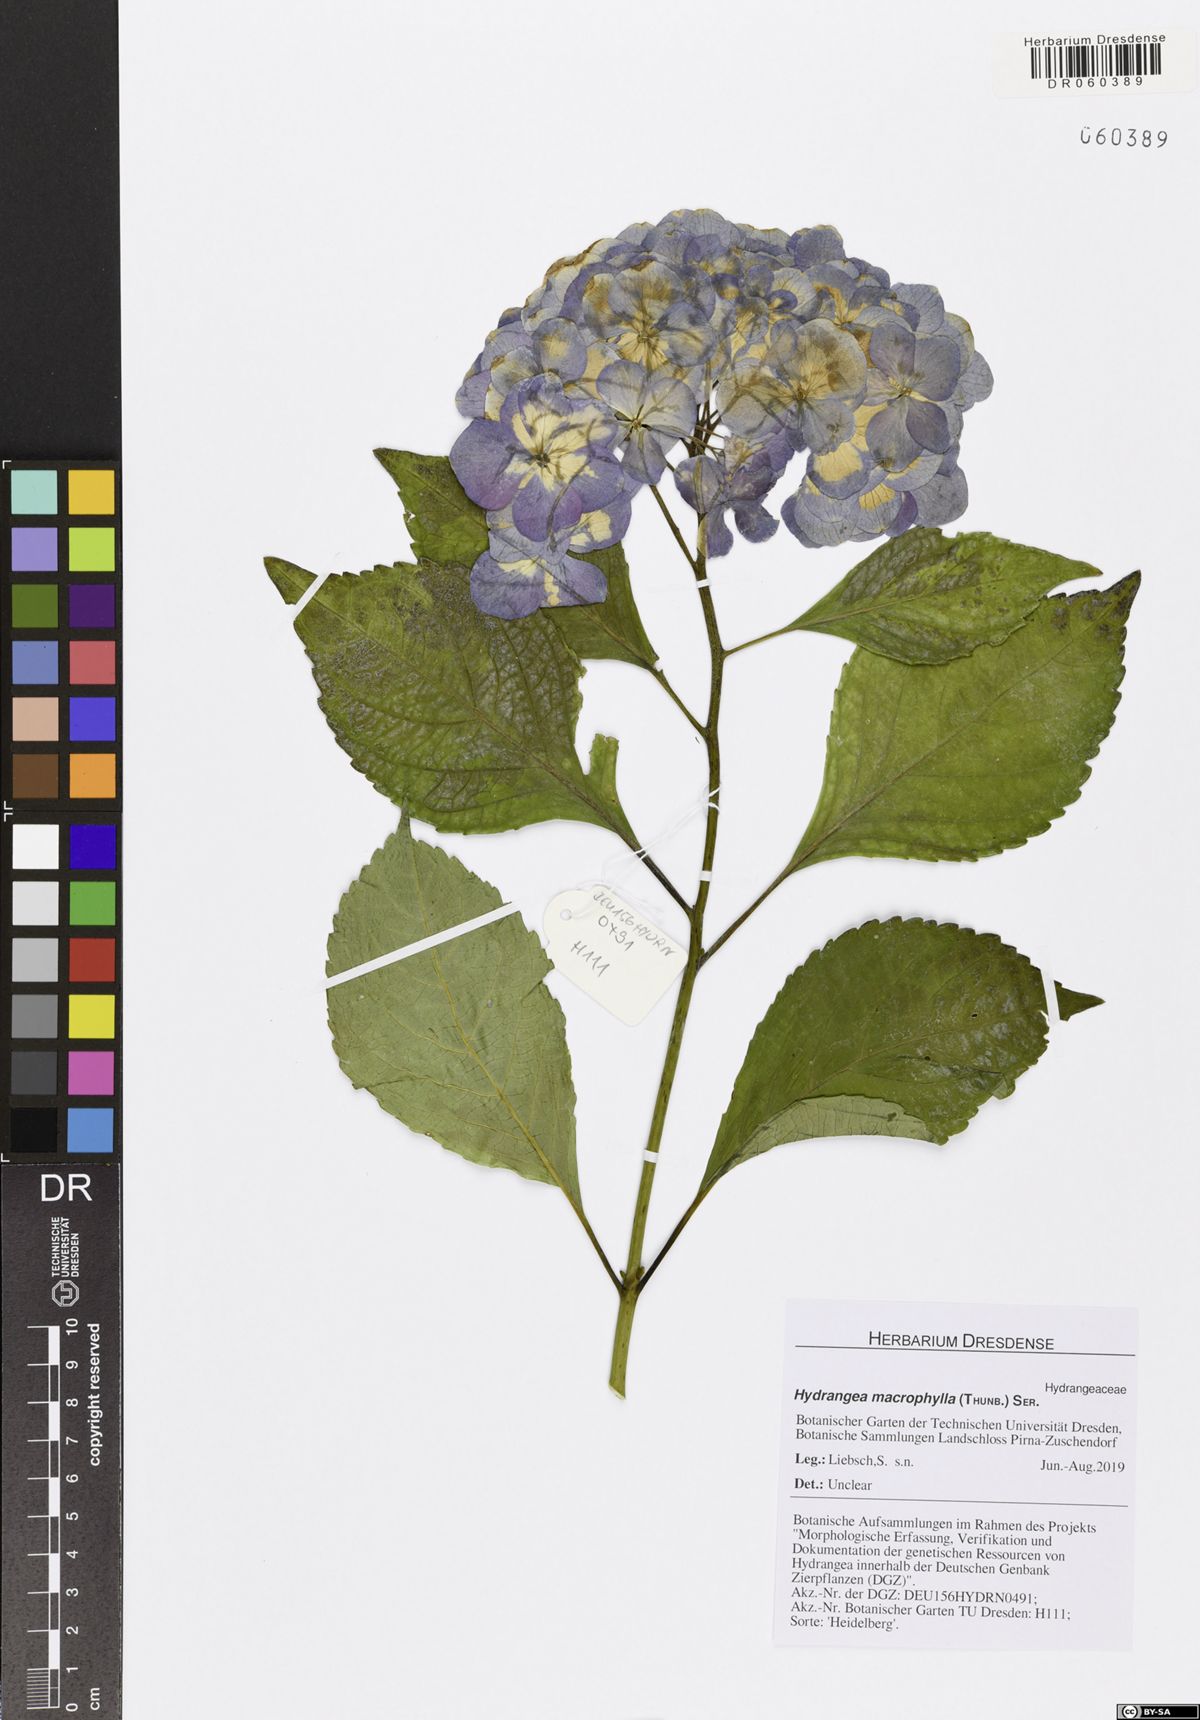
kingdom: Plantae
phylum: Tracheophyta
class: Magnoliopsida
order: Cornales
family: Hydrangeaceae
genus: Hydrangea
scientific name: Hydrangea macrophylla
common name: Hydrangea
